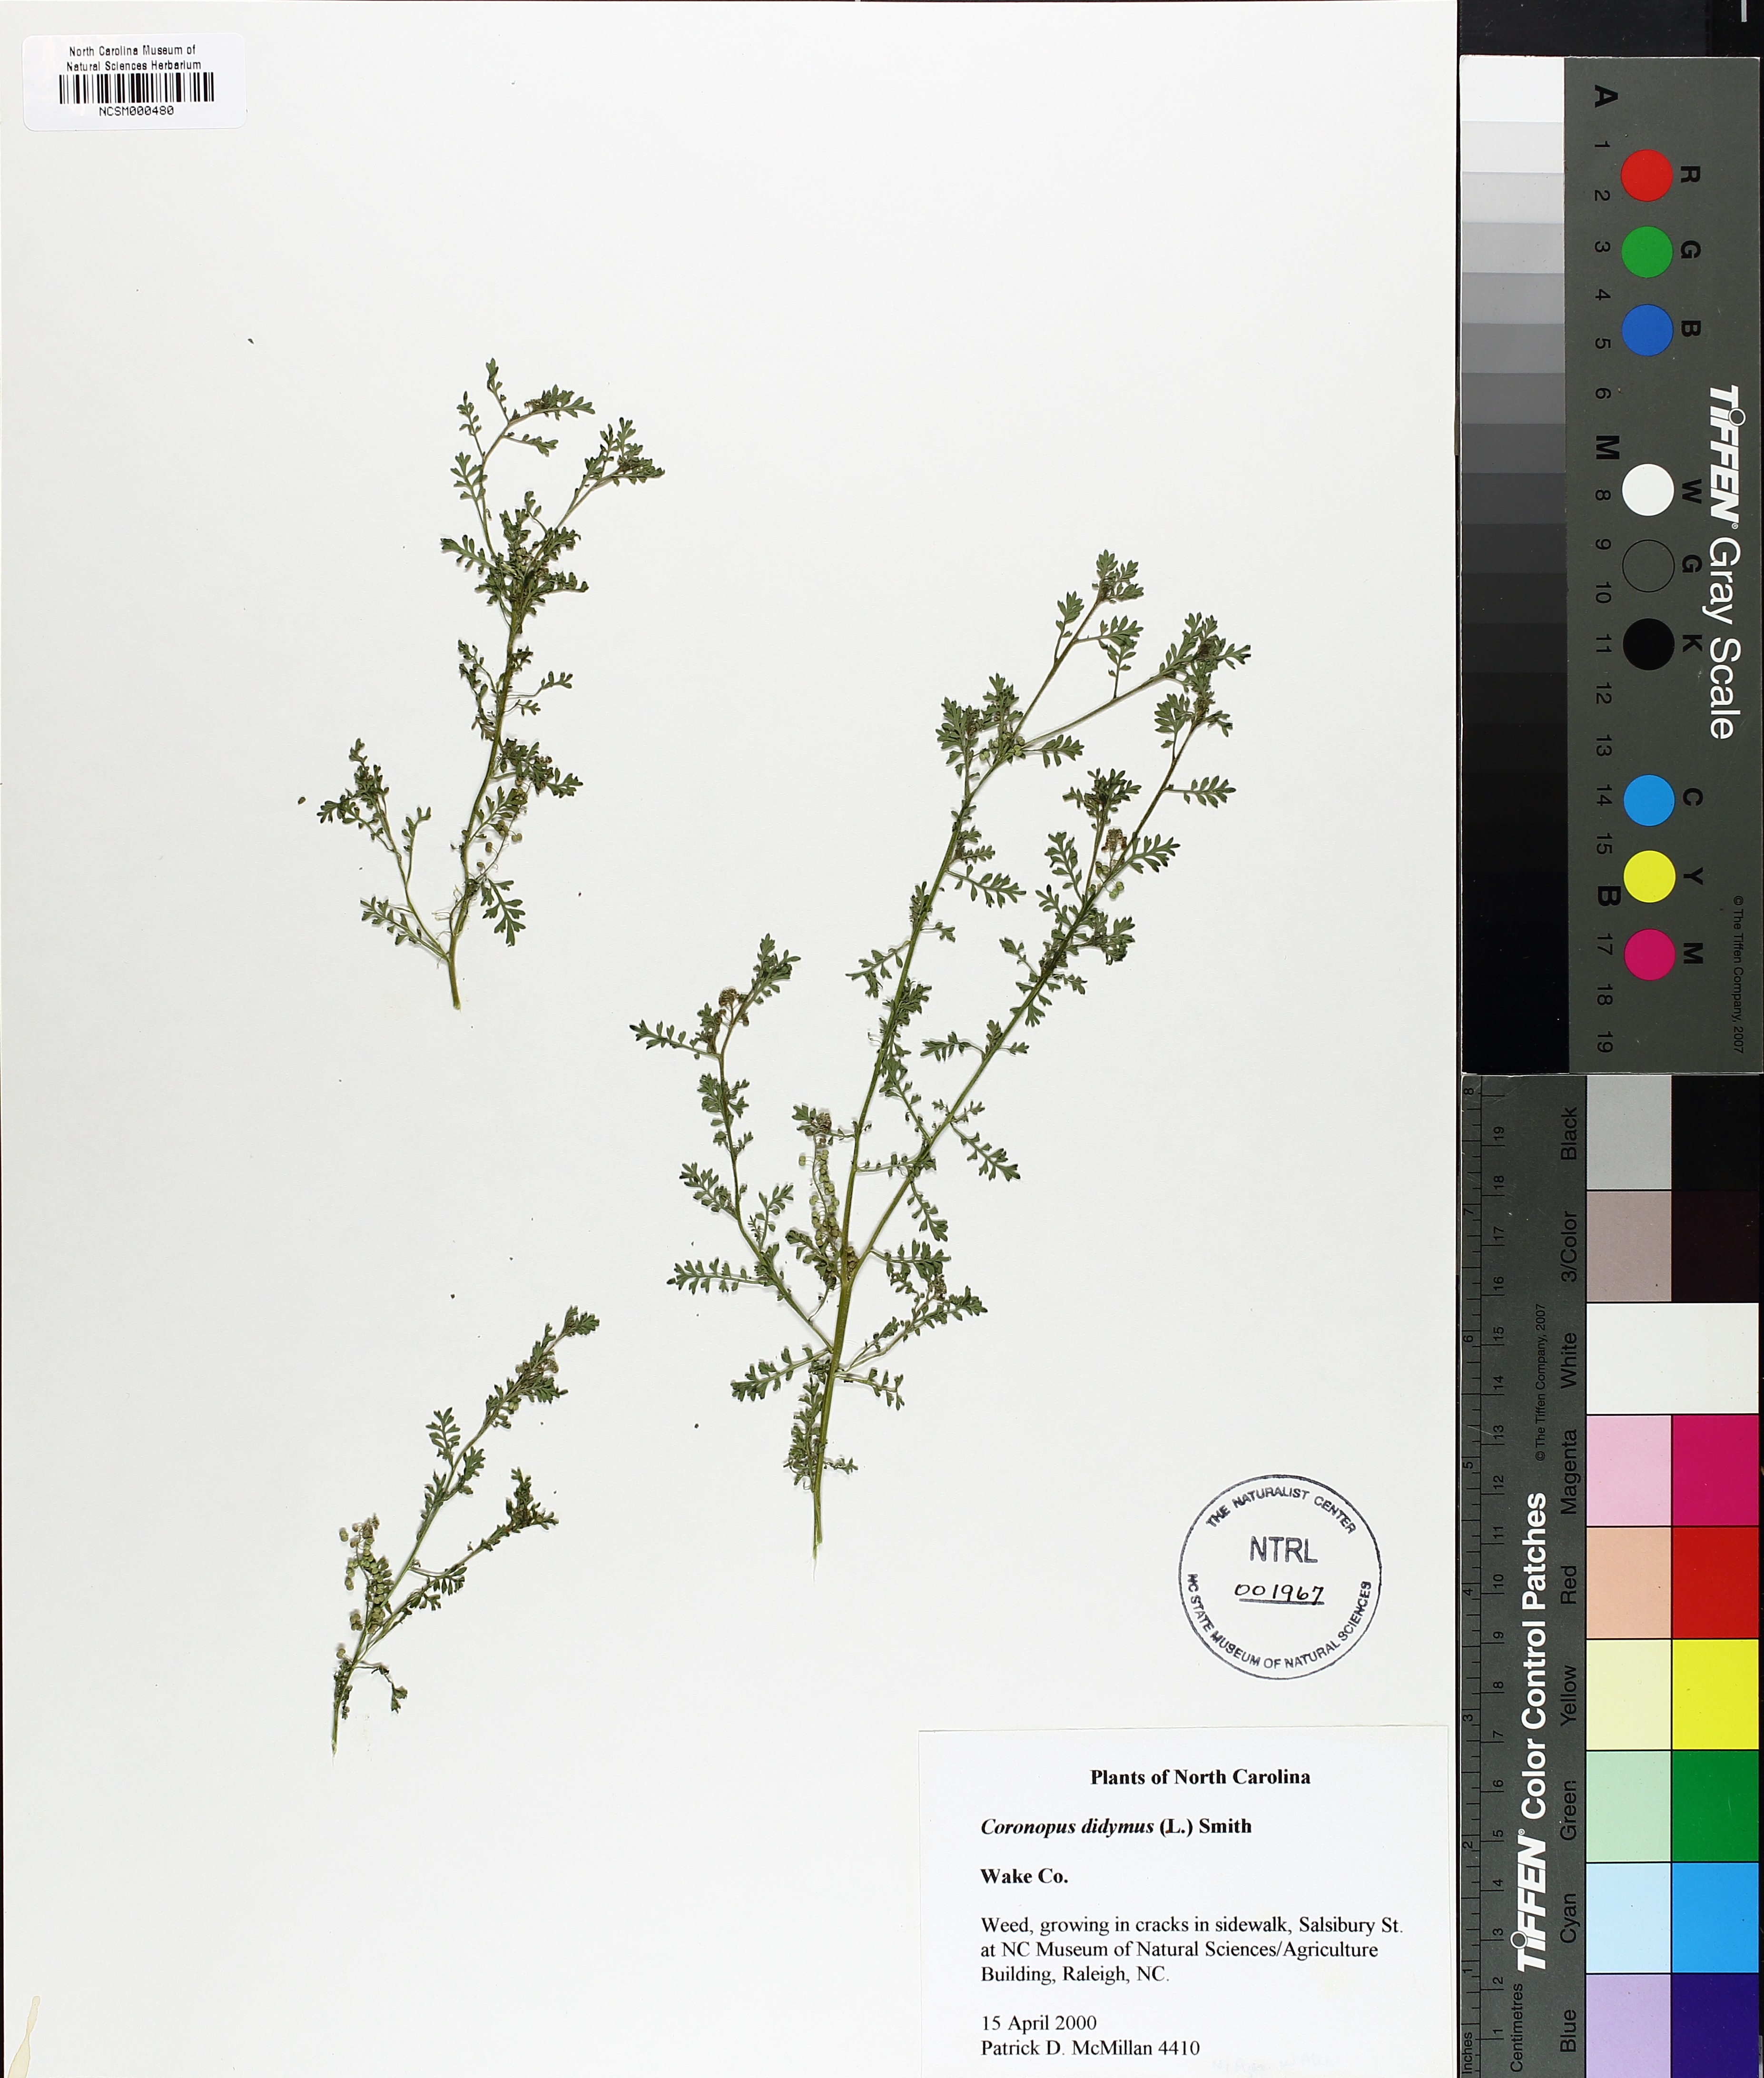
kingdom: Plantae
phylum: Tracheophyta
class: Magnoliopsida
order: Brassicales
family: Brassicaceae
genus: Lepidium
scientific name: Lepidium didymum
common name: Lesser swinecress
